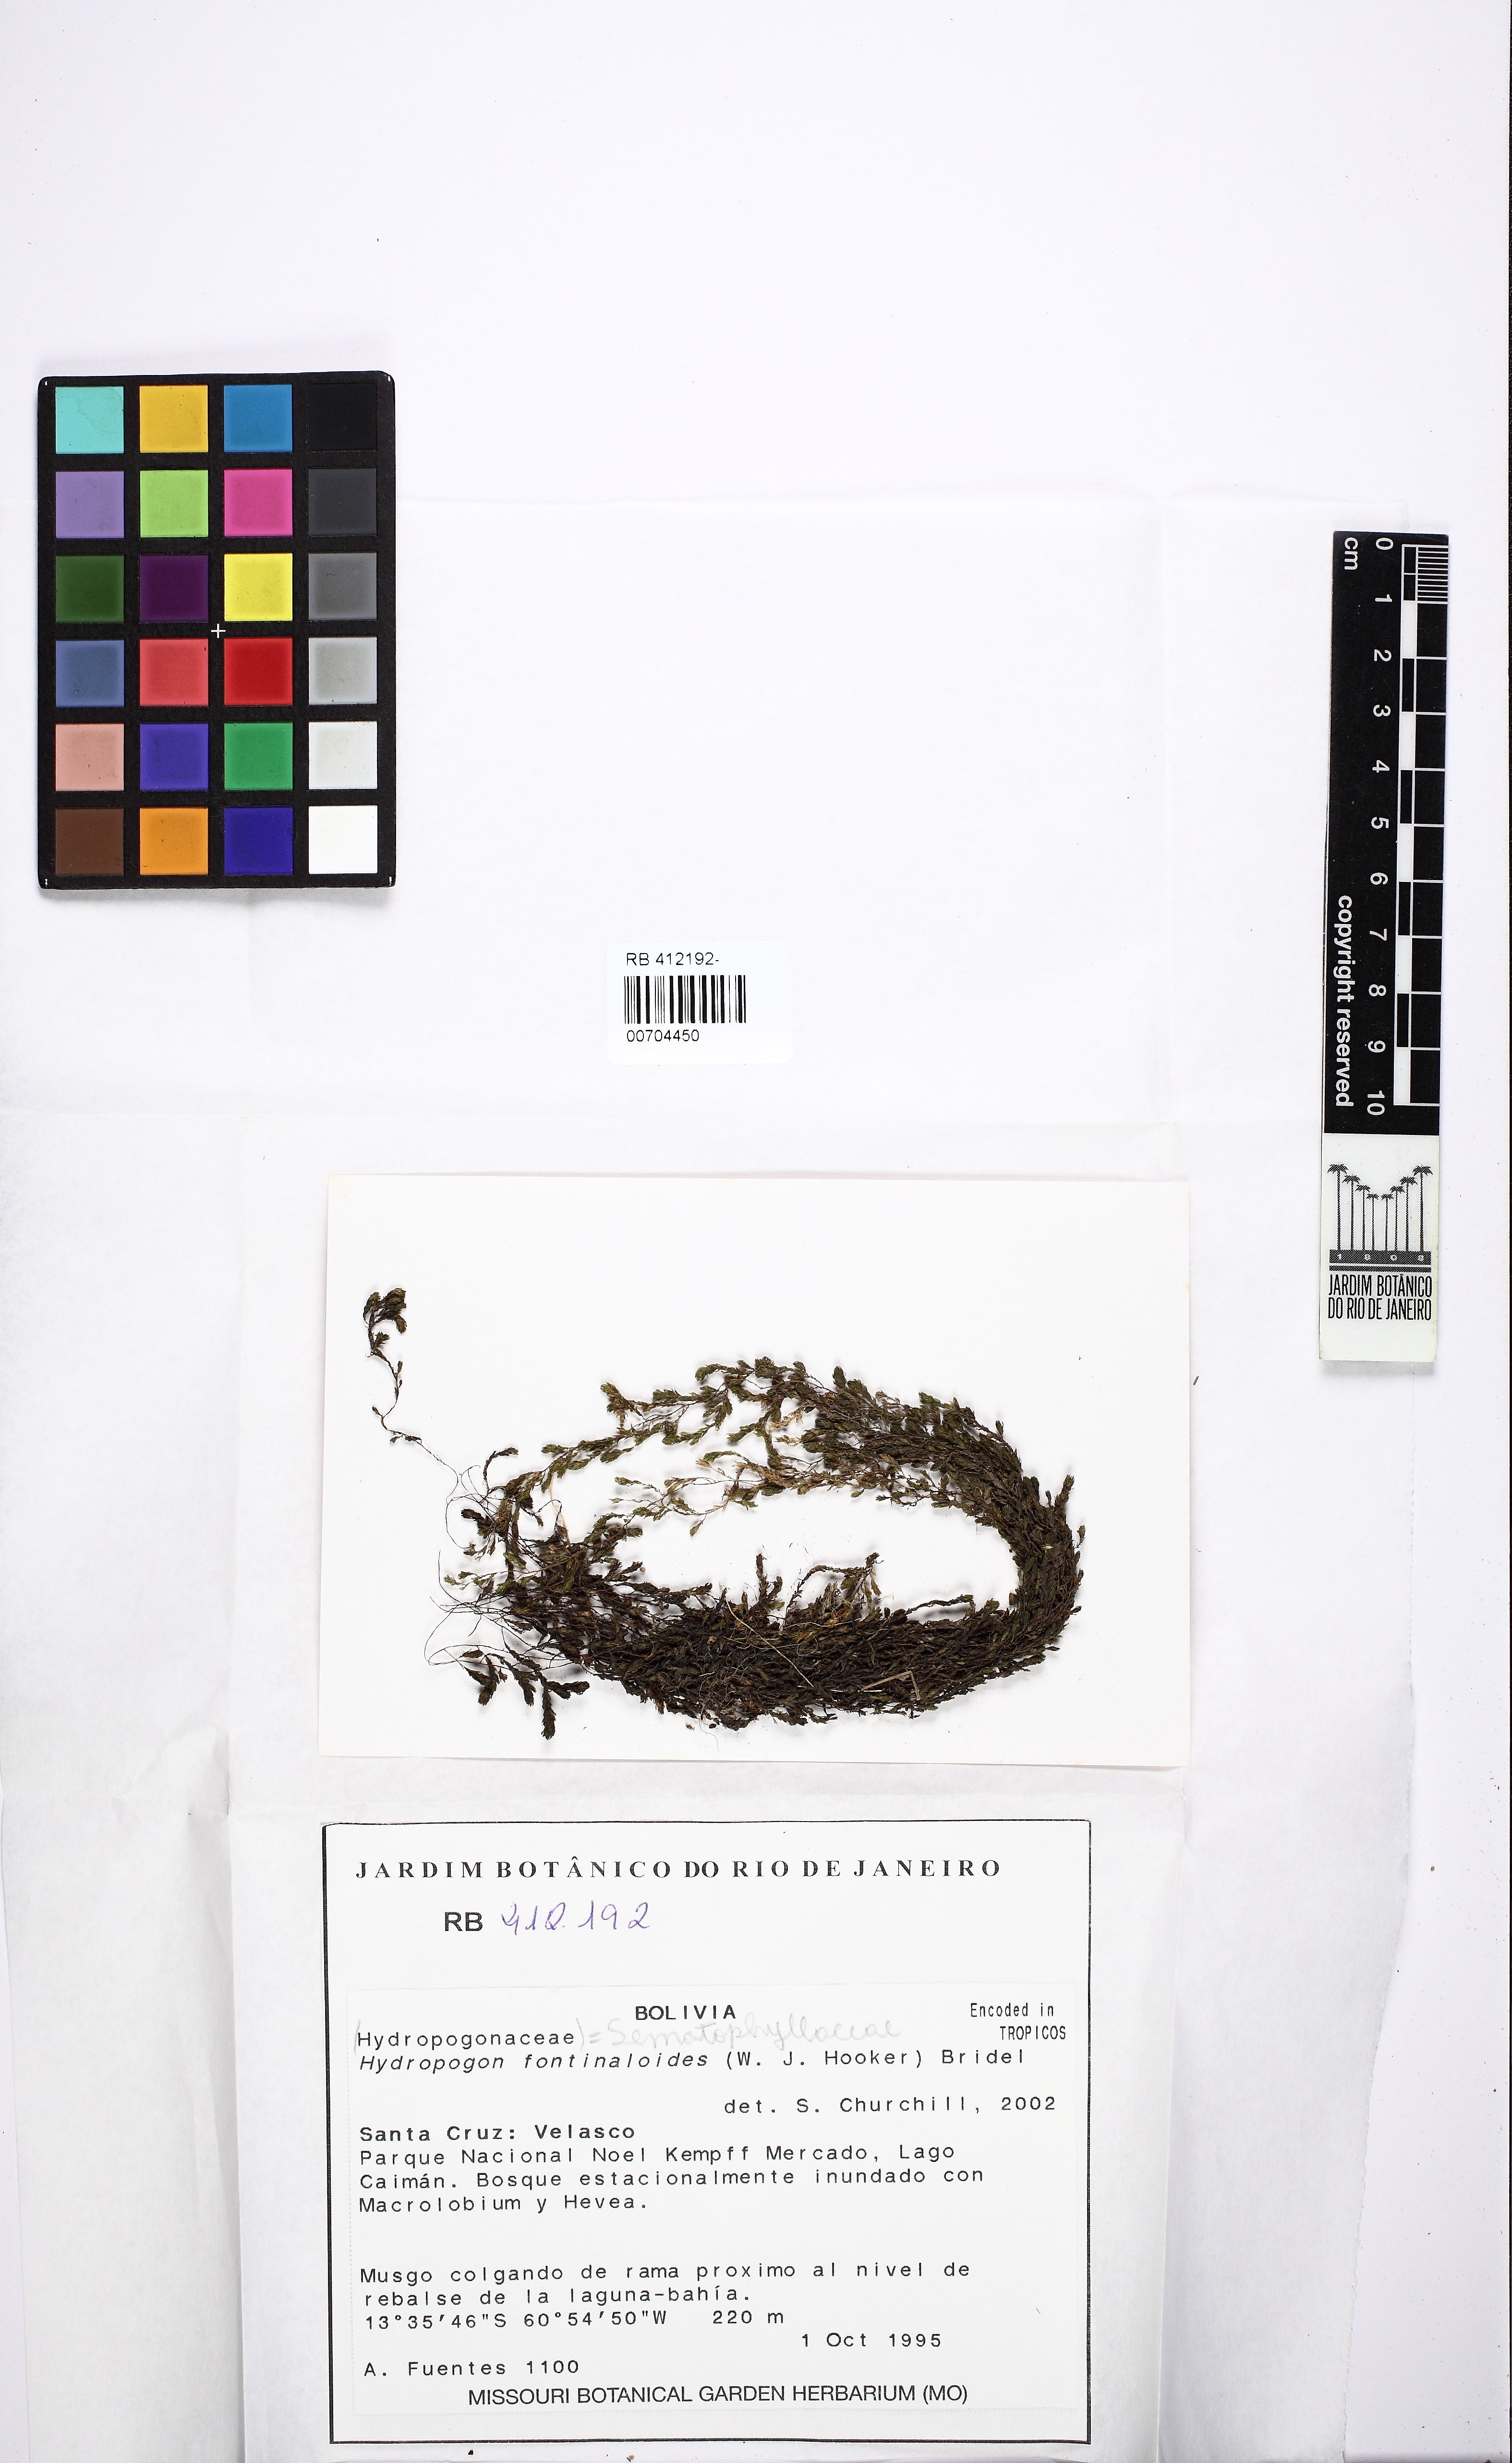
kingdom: Plantae
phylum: Bryophyta
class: Bryopsida
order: Hypnales
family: Sematophyllaceae
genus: Hydropogon
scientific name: Hydropogon fontinaloides
